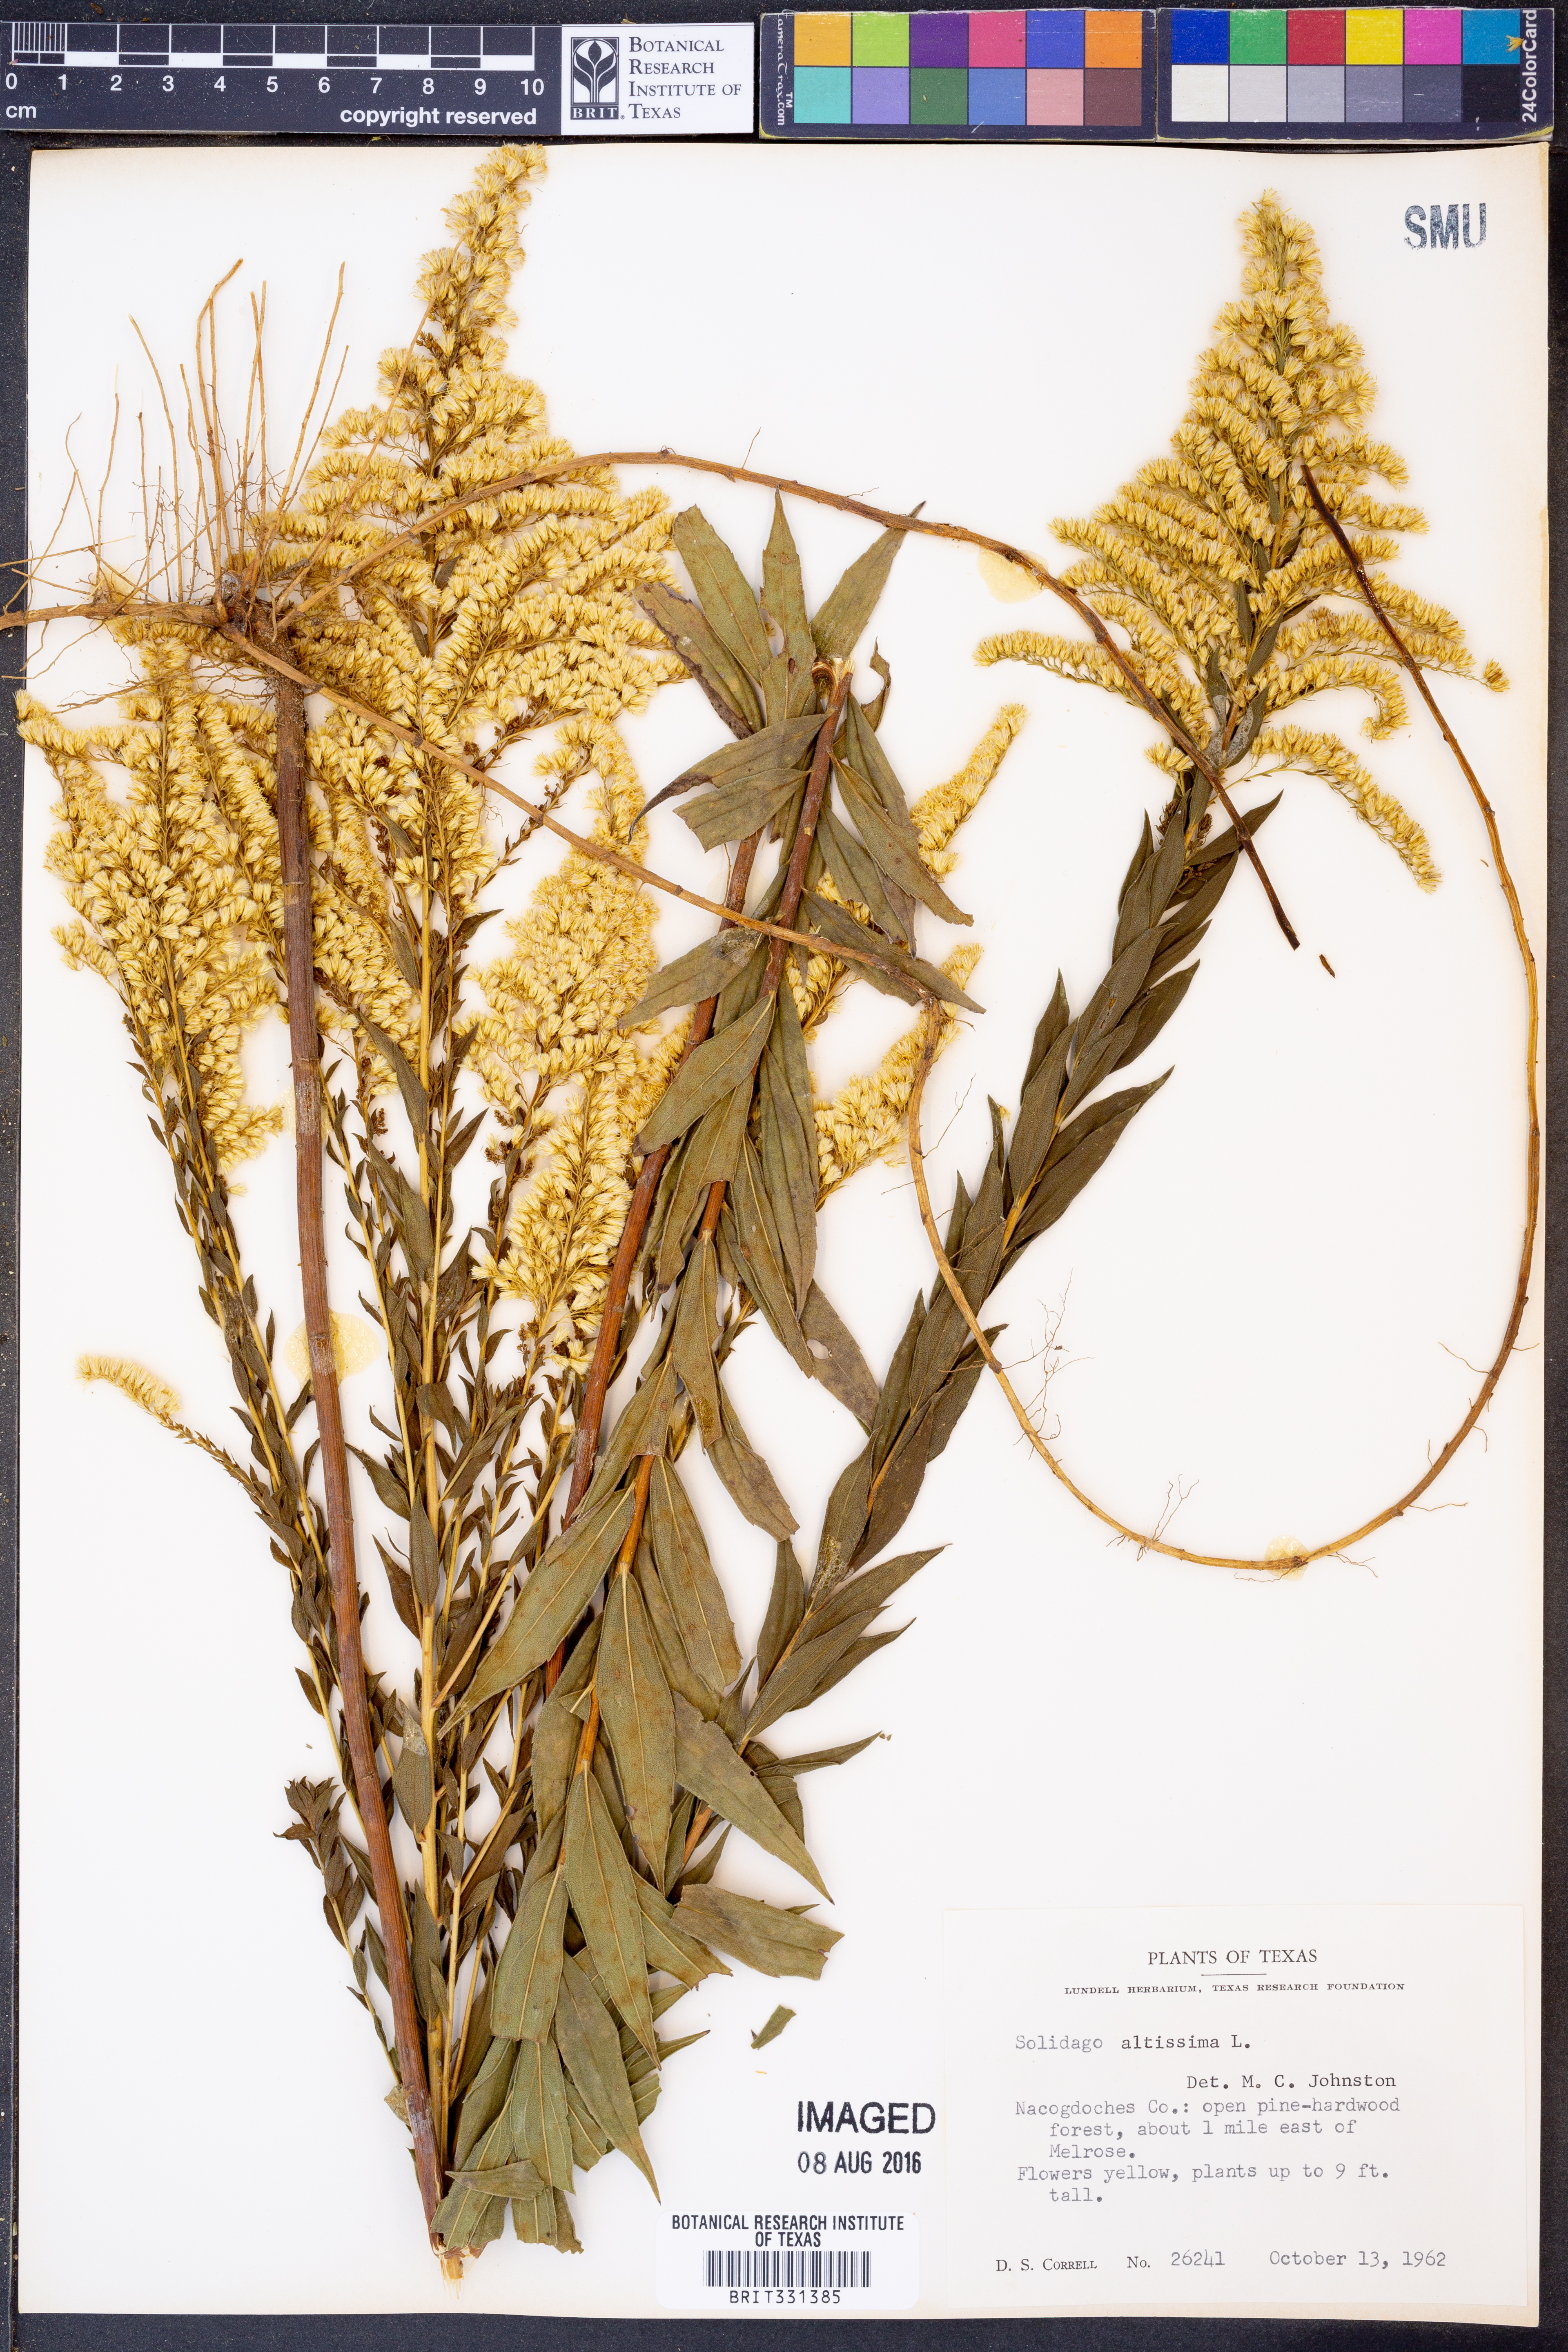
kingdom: Plantae
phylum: Tracheophyta
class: Magnoliopsida
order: Asterales
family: Asteraceae
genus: Solidago
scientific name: Solidago altissima
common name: Late goldenrod
